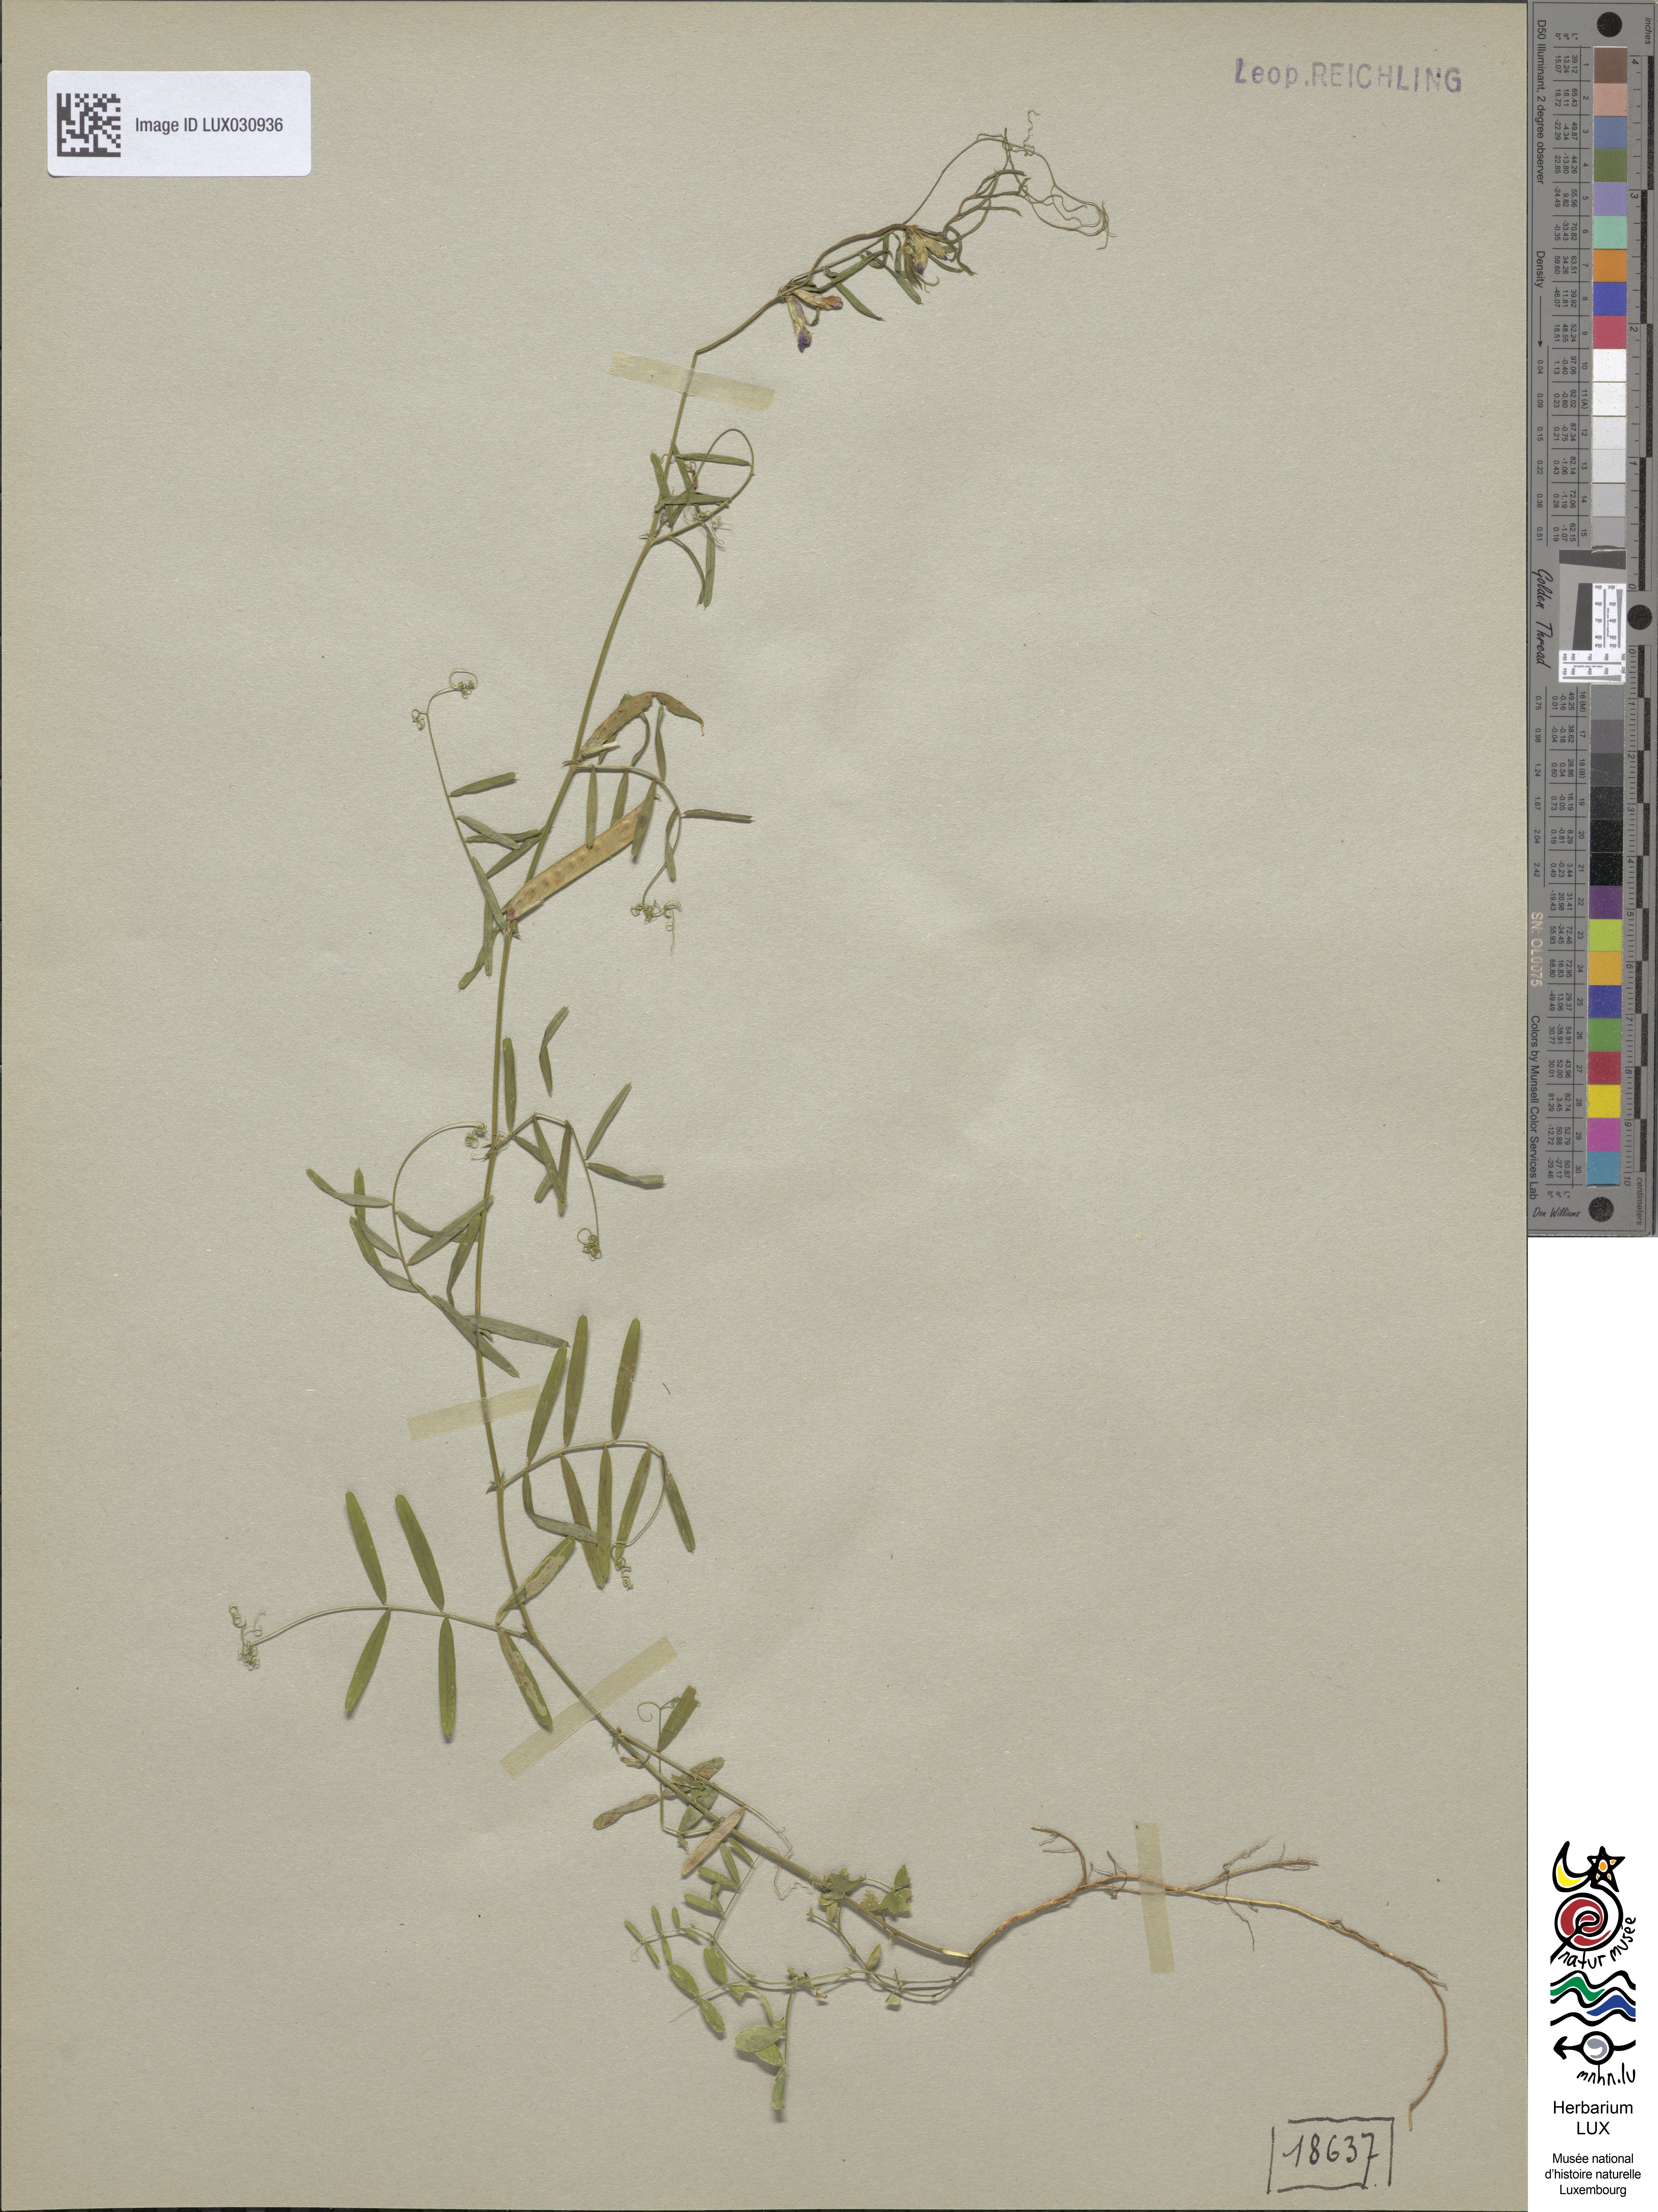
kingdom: Plantae
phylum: Tracheophyta
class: Magnoliopsida
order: Fabales
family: Fabaceae
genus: Vicia
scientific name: Vicia sativa
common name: Garden vetch
